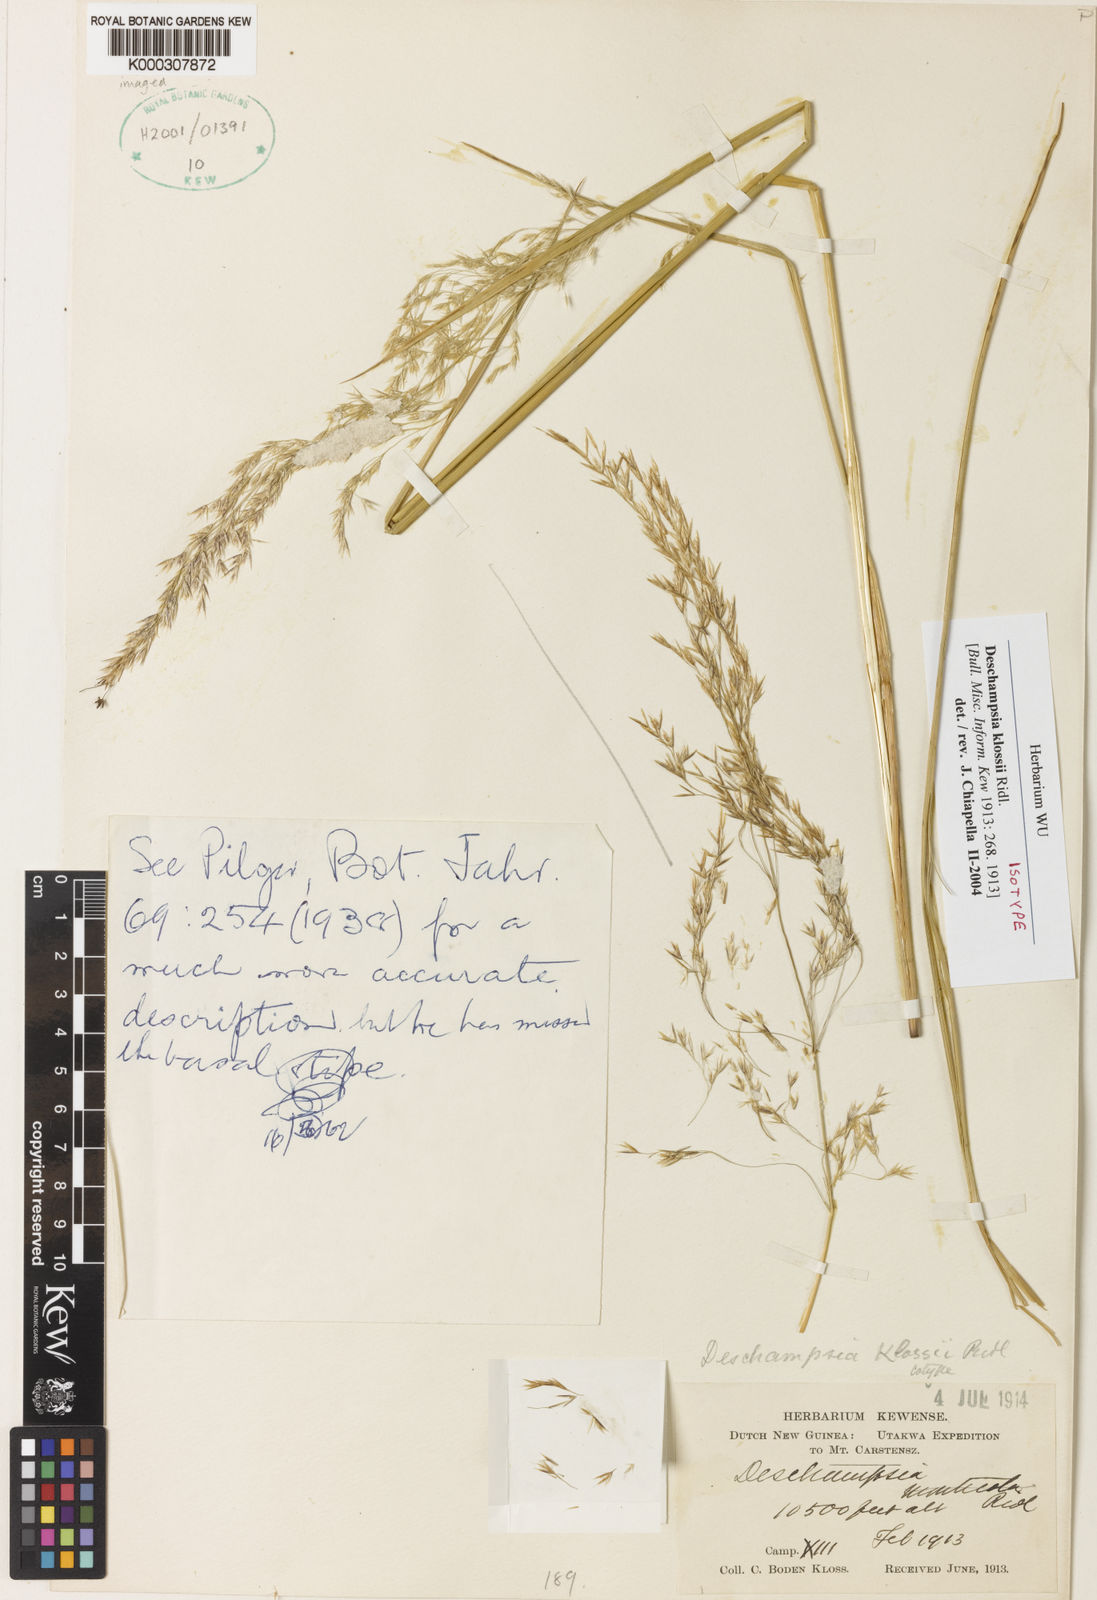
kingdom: Plantae
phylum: Tracheophyta
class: Liliopsida
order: Poales
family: Poaceae
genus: Deschampsia
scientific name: Deschampsia klossii
